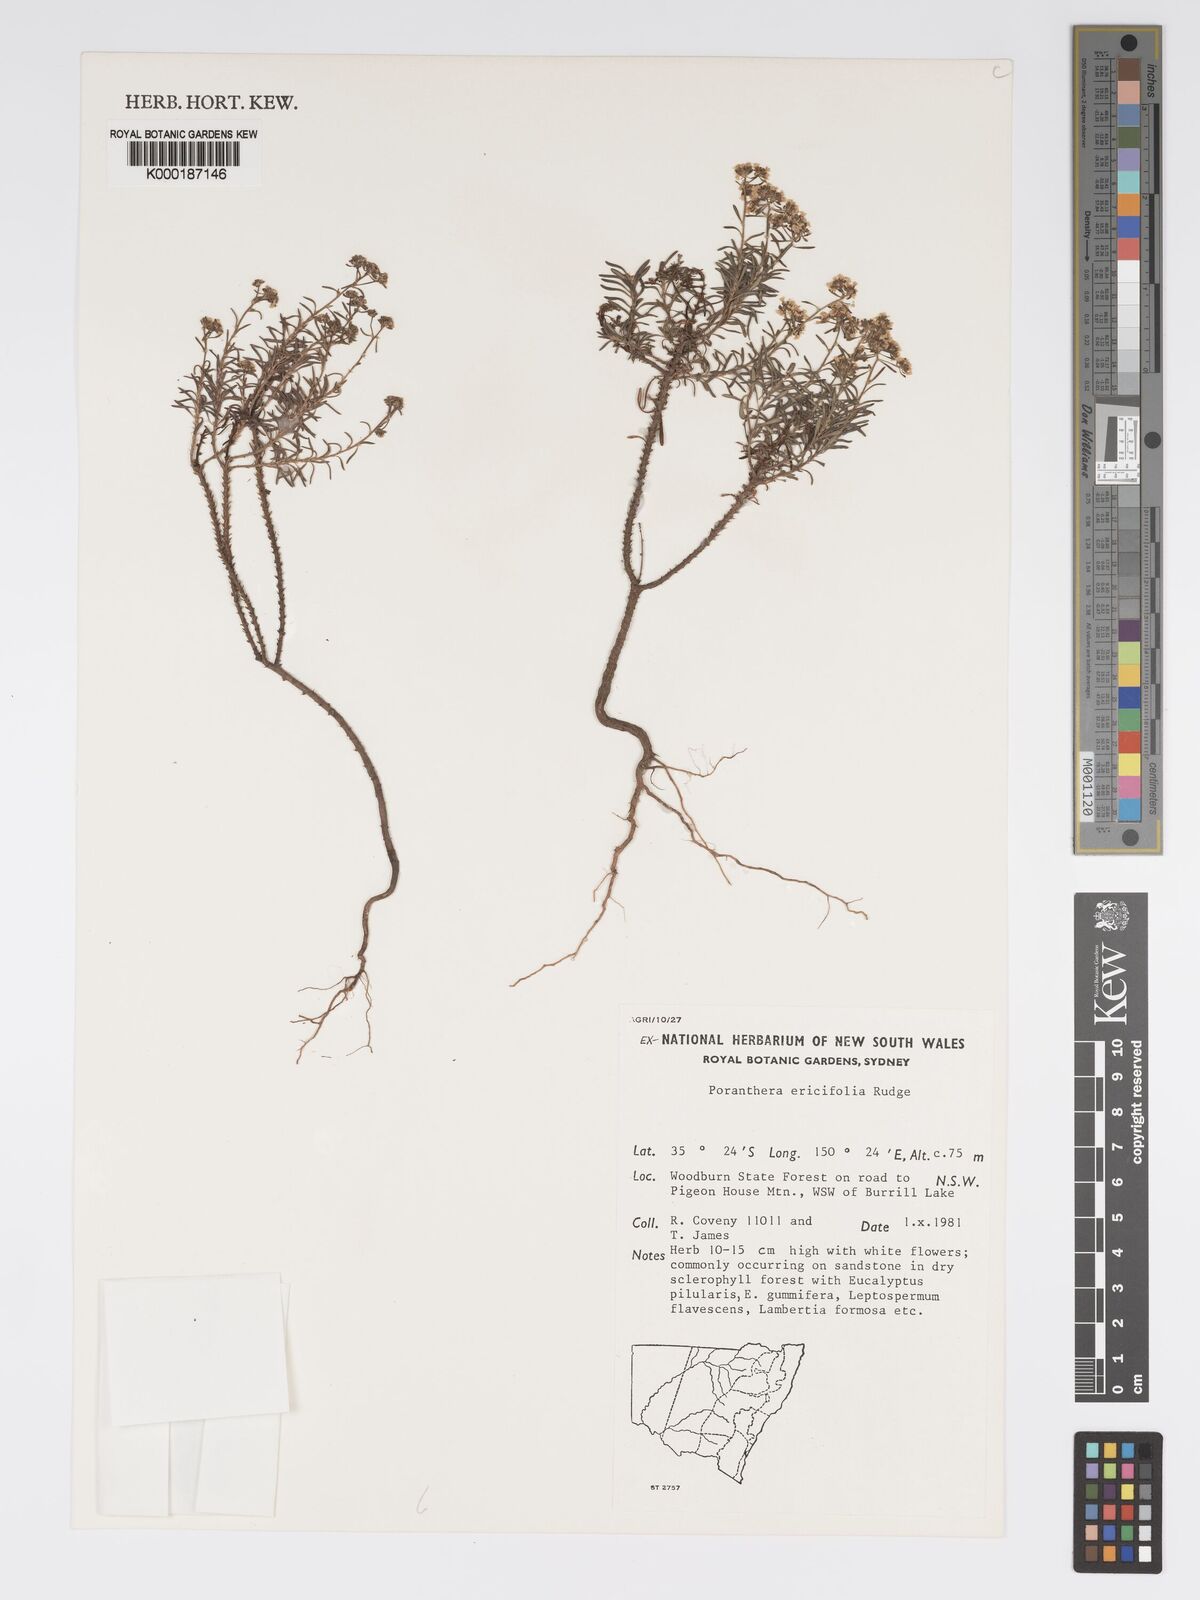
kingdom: Plantae
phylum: Tracheophyta
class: Magnoliopsida
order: Malpighiales
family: Phyllanthaceae
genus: Poranthera
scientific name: Poranthera ericifolia
